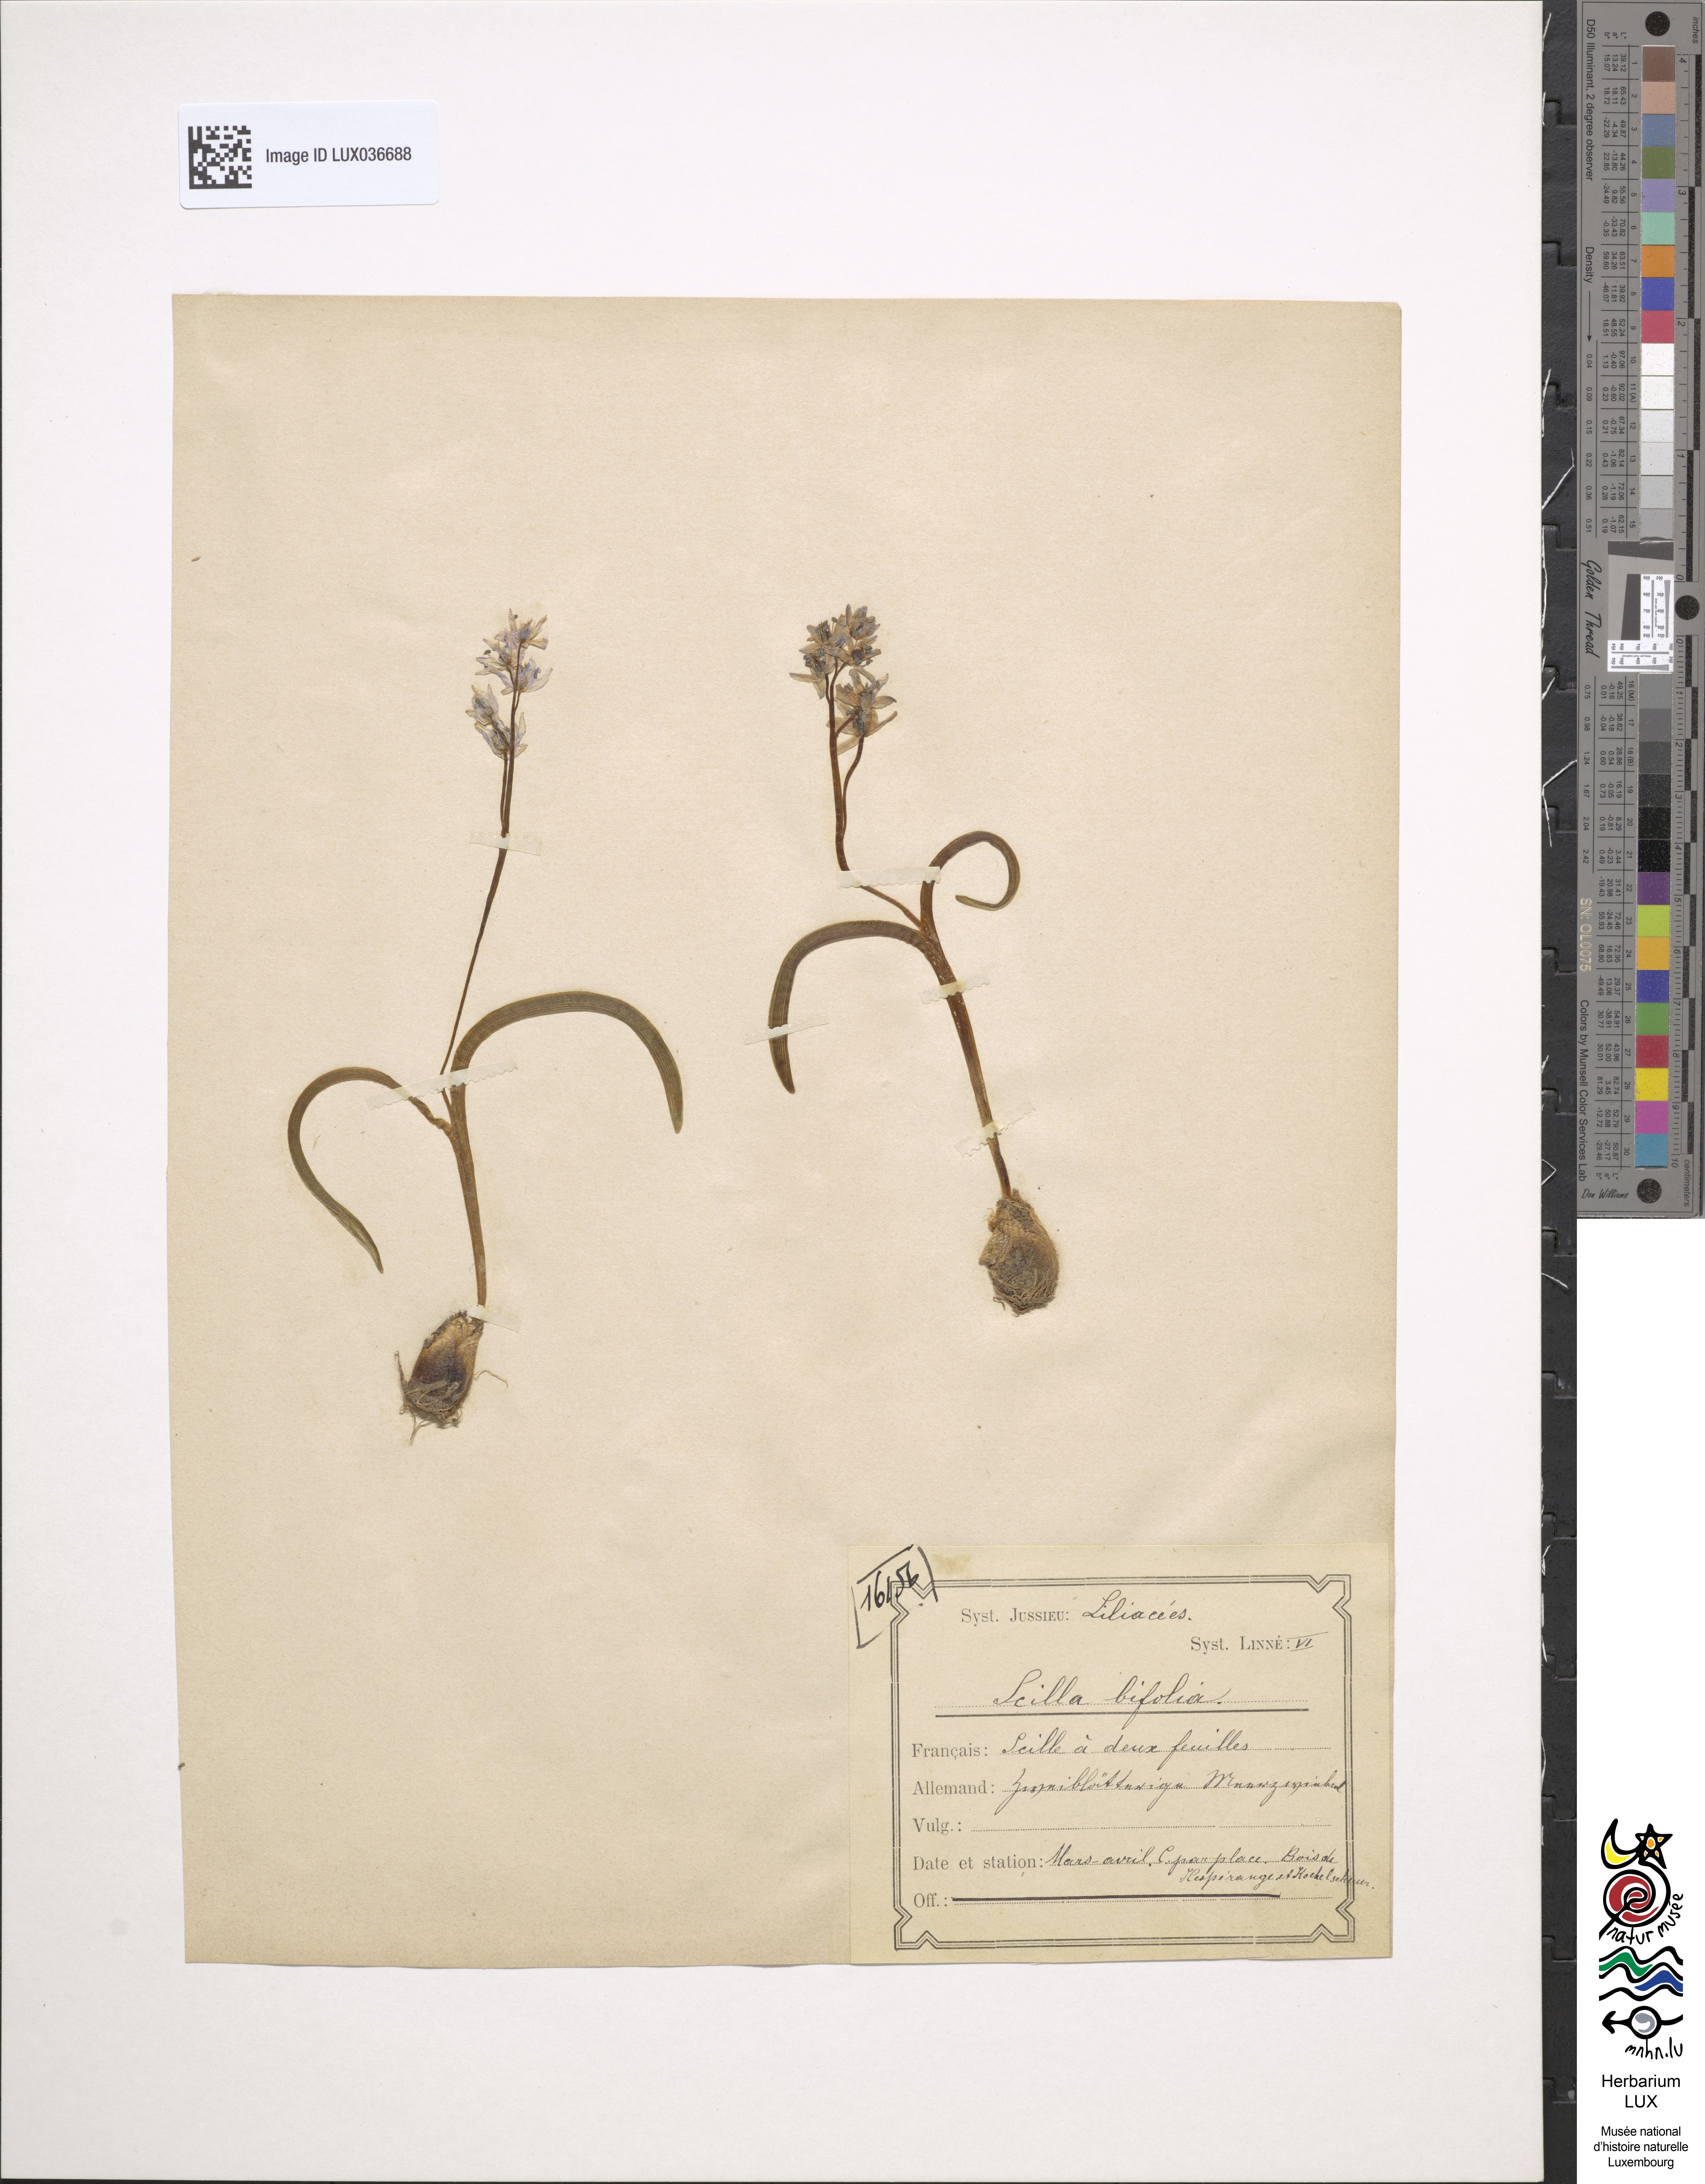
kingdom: Plantae
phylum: Tracheophyta
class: Liliopsida
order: Asparagales
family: Asparagaceae
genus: Scilla
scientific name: Scilla bifolia
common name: Alpine squill
